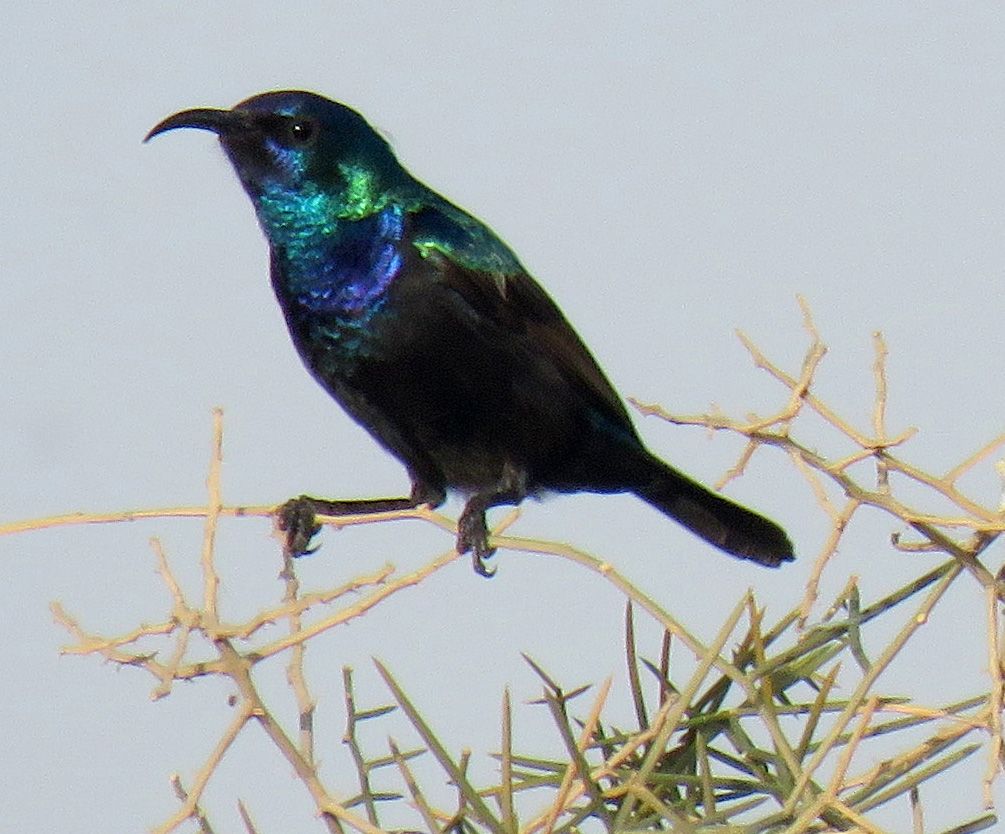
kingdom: Animalia
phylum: Chordata
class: Aves
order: Passeriformes
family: Nectariniidae
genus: Cinnyris
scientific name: Cinnyris osea
